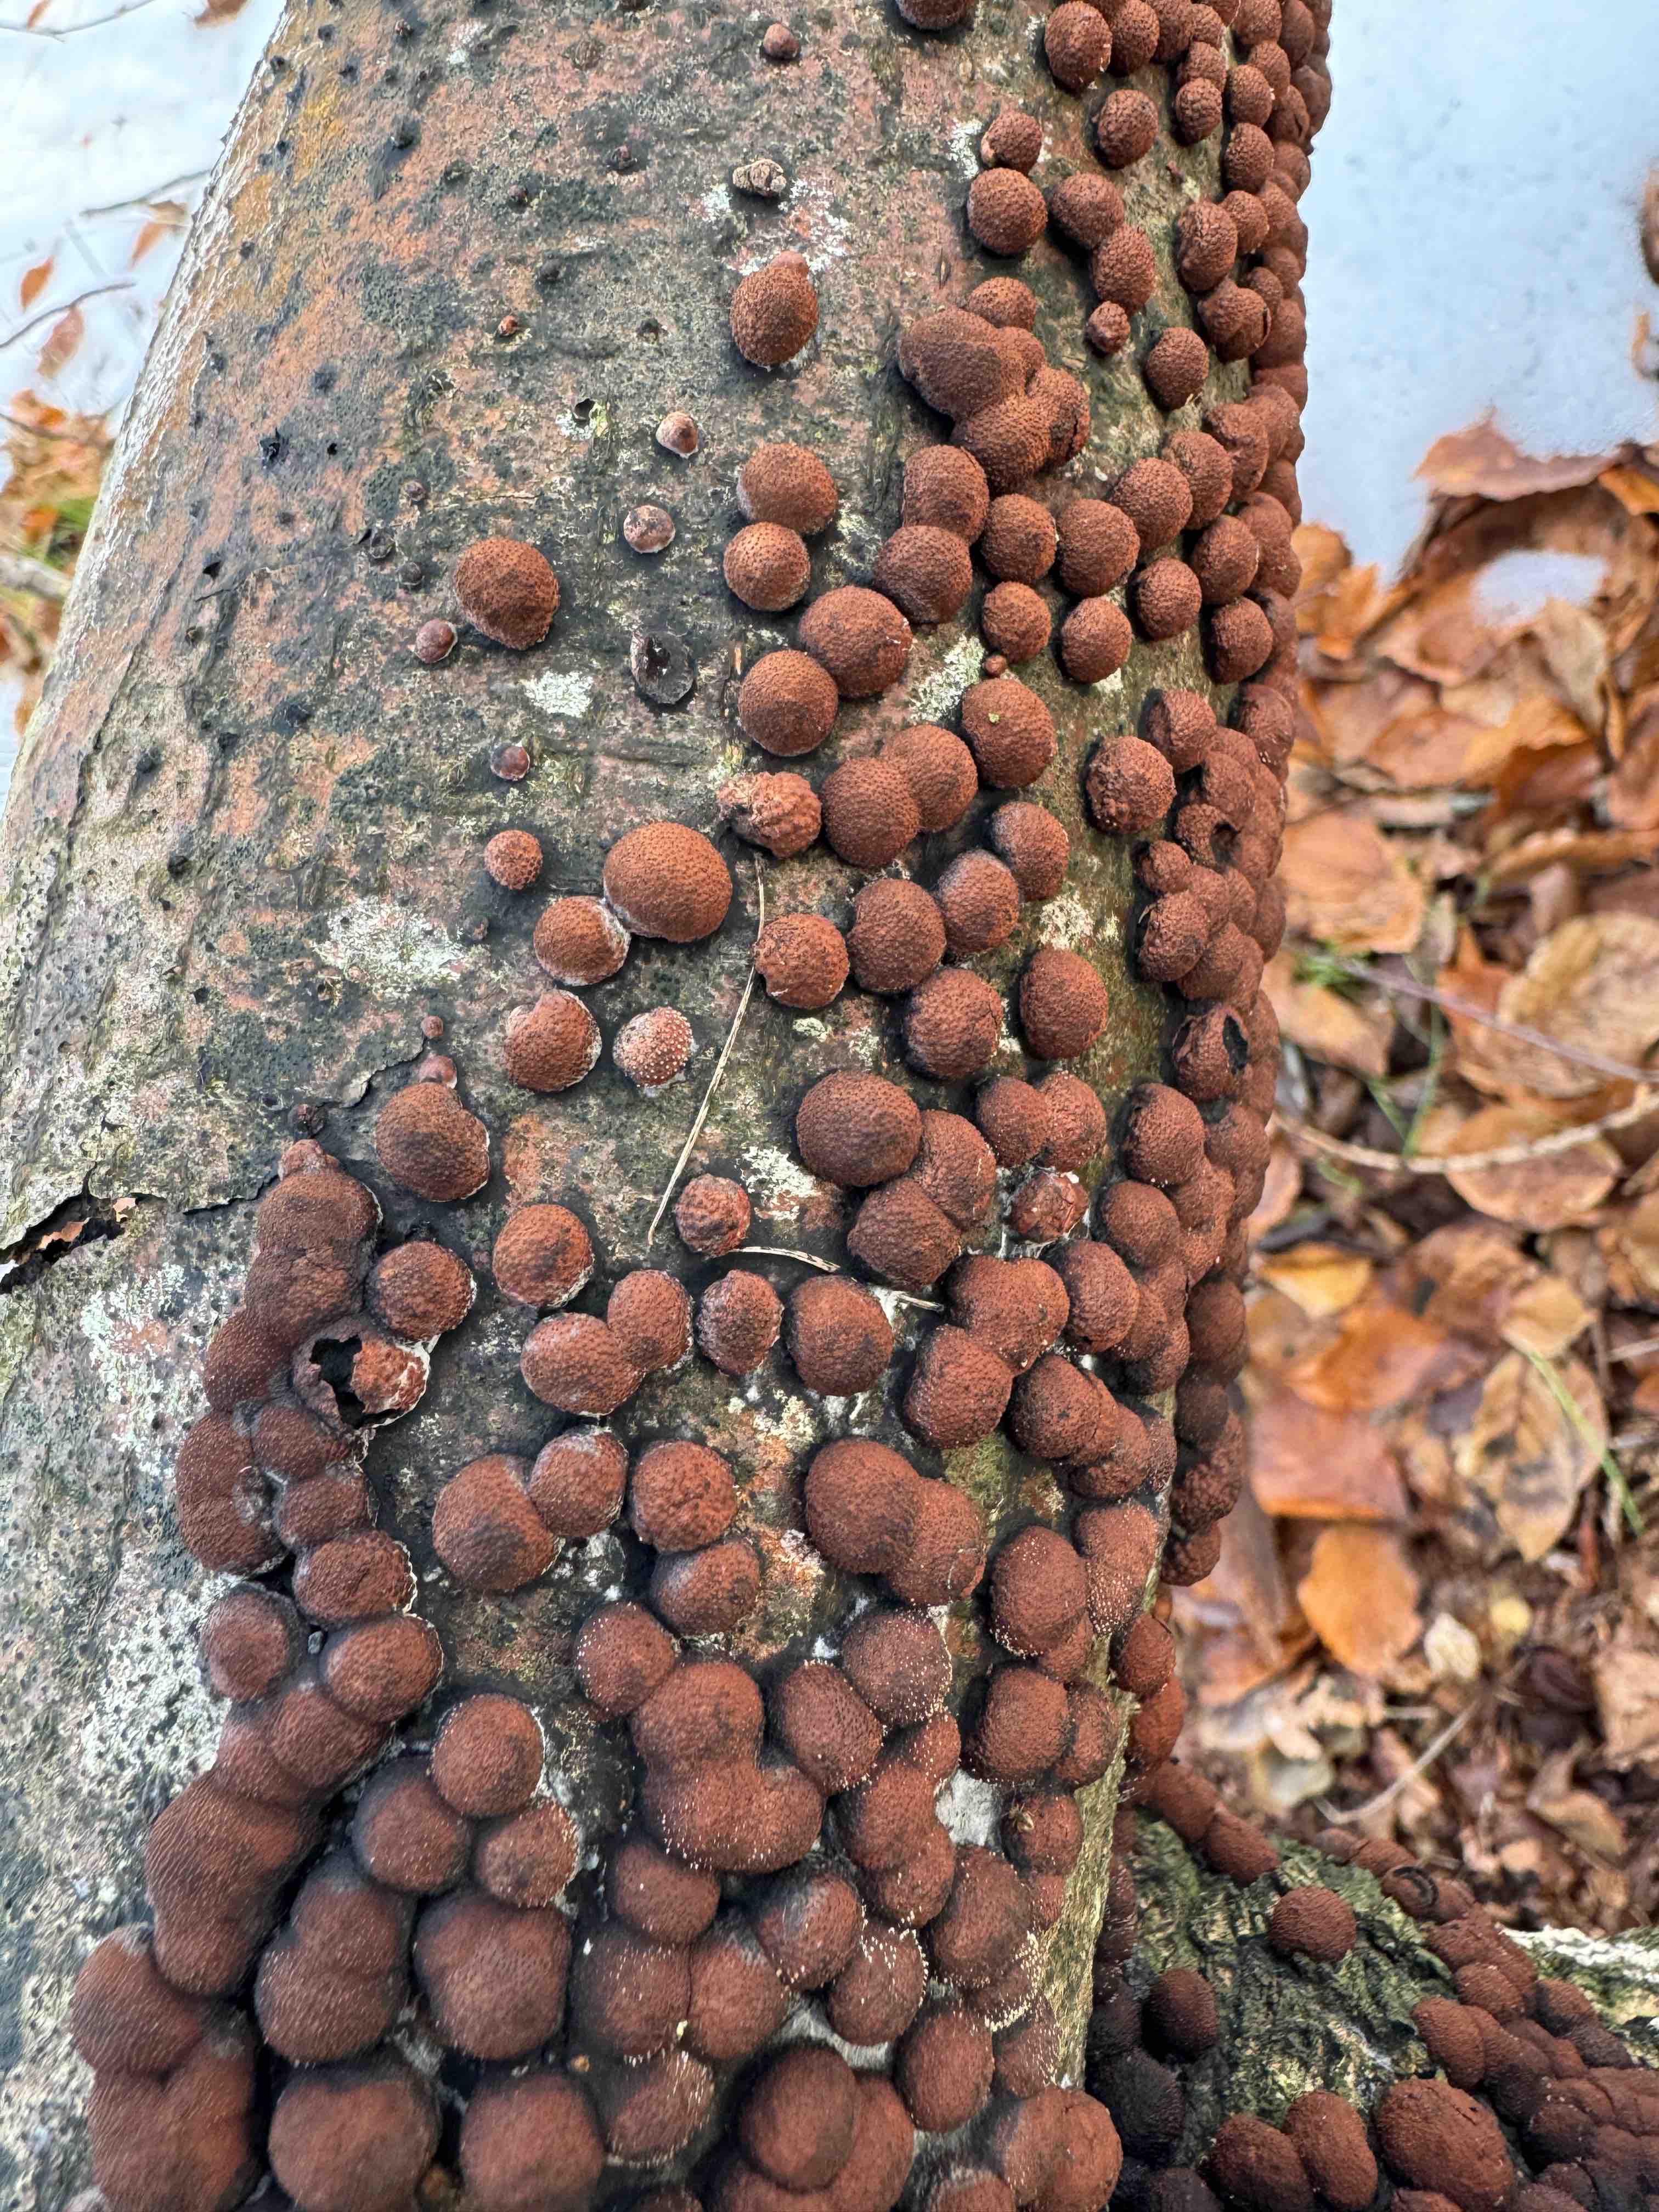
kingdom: Fungi
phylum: Ascomycota
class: Sordariomycetes
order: Xylariales
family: Hypoxylaceae
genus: Hypoxylon
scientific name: Hypoxylon fragiforme
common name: kuljordbær
